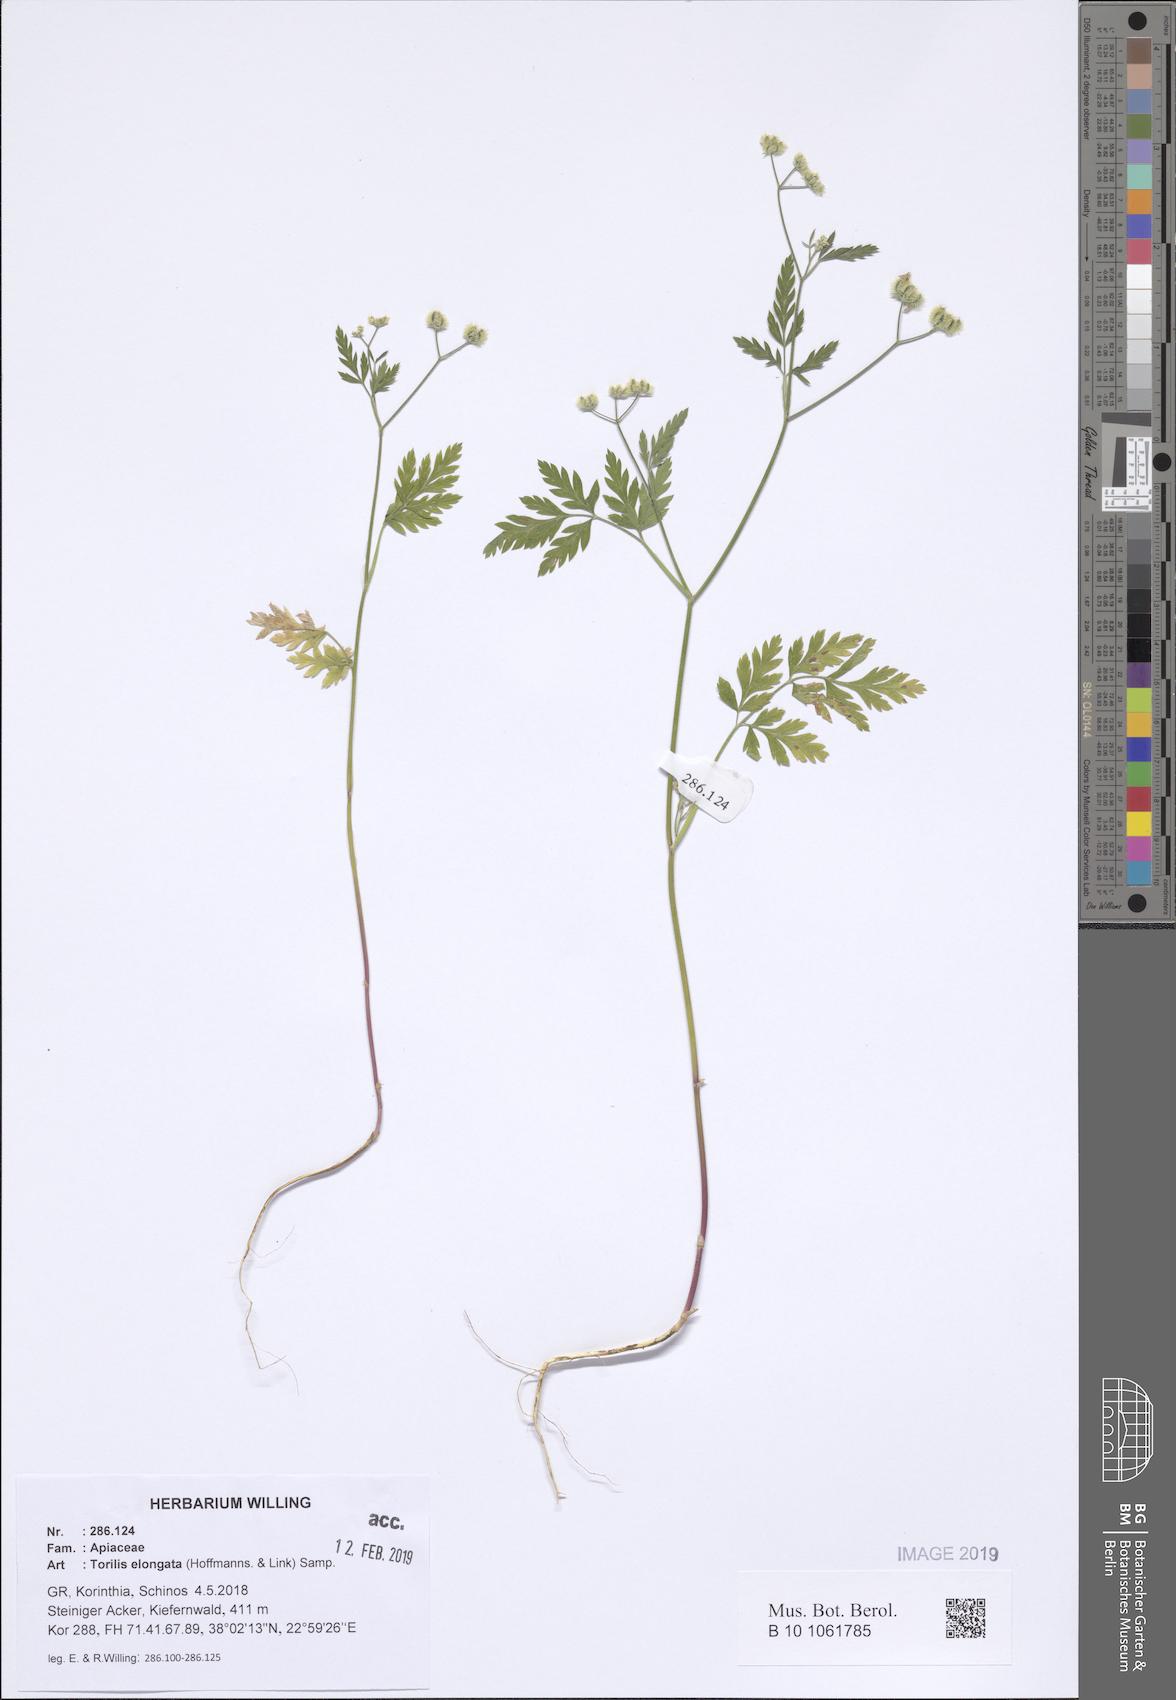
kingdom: Plantae
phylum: Tracheophyta
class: Magnoliopsida
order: Apiales
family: Apiaceae
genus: Torilis
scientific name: Torilis elongata
